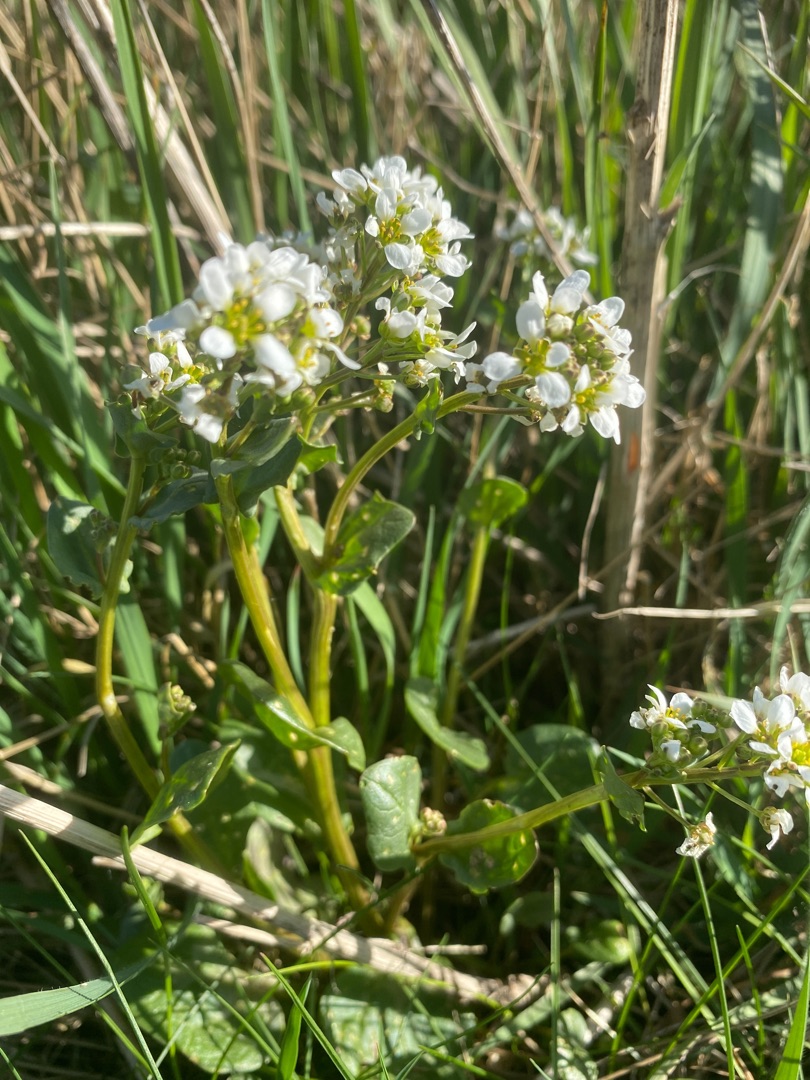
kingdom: Plantae
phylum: Tracheophyta
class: Magnoliopsida
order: Brassicales
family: Brassicaceae
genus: Cochlearia
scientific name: Cochlearia officinalis
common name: Læge-kokleare
